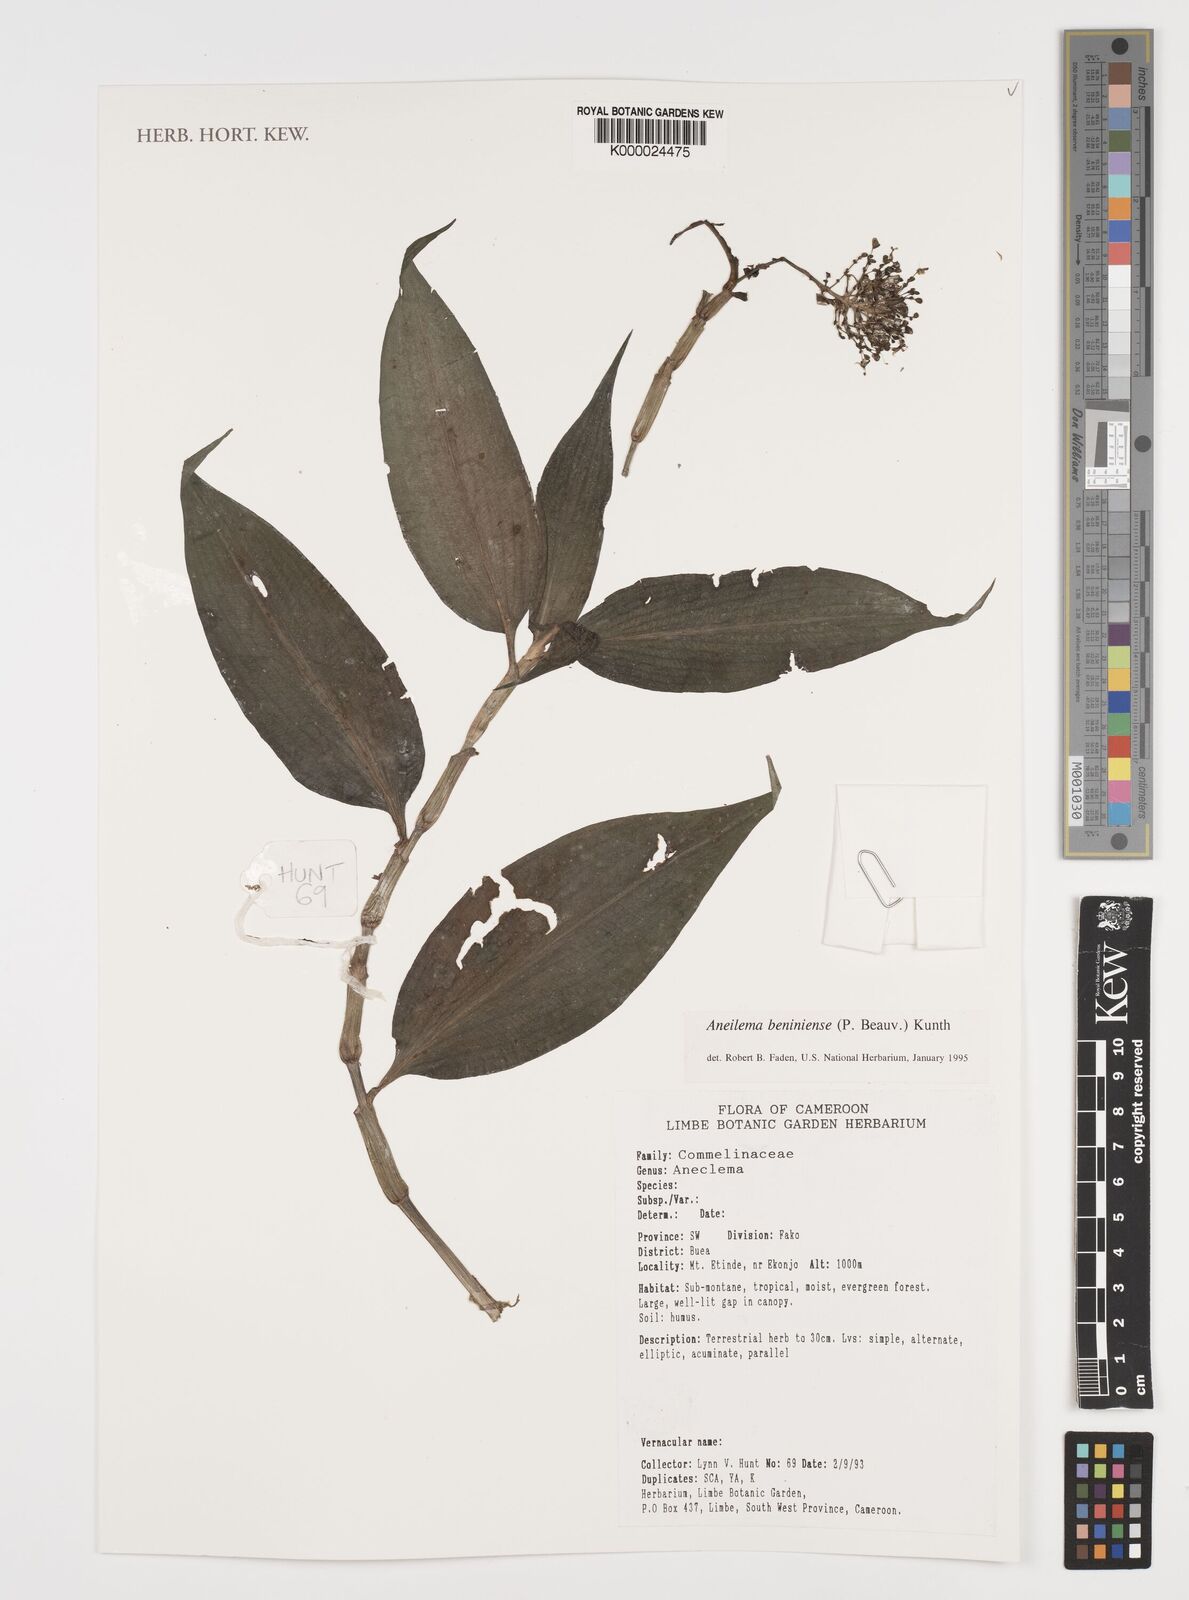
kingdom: Plantae
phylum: Tracheophyta
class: Liliopsida
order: Commelinales
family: Commelinaceae
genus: Aneilema
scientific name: Aneilema beniniense
